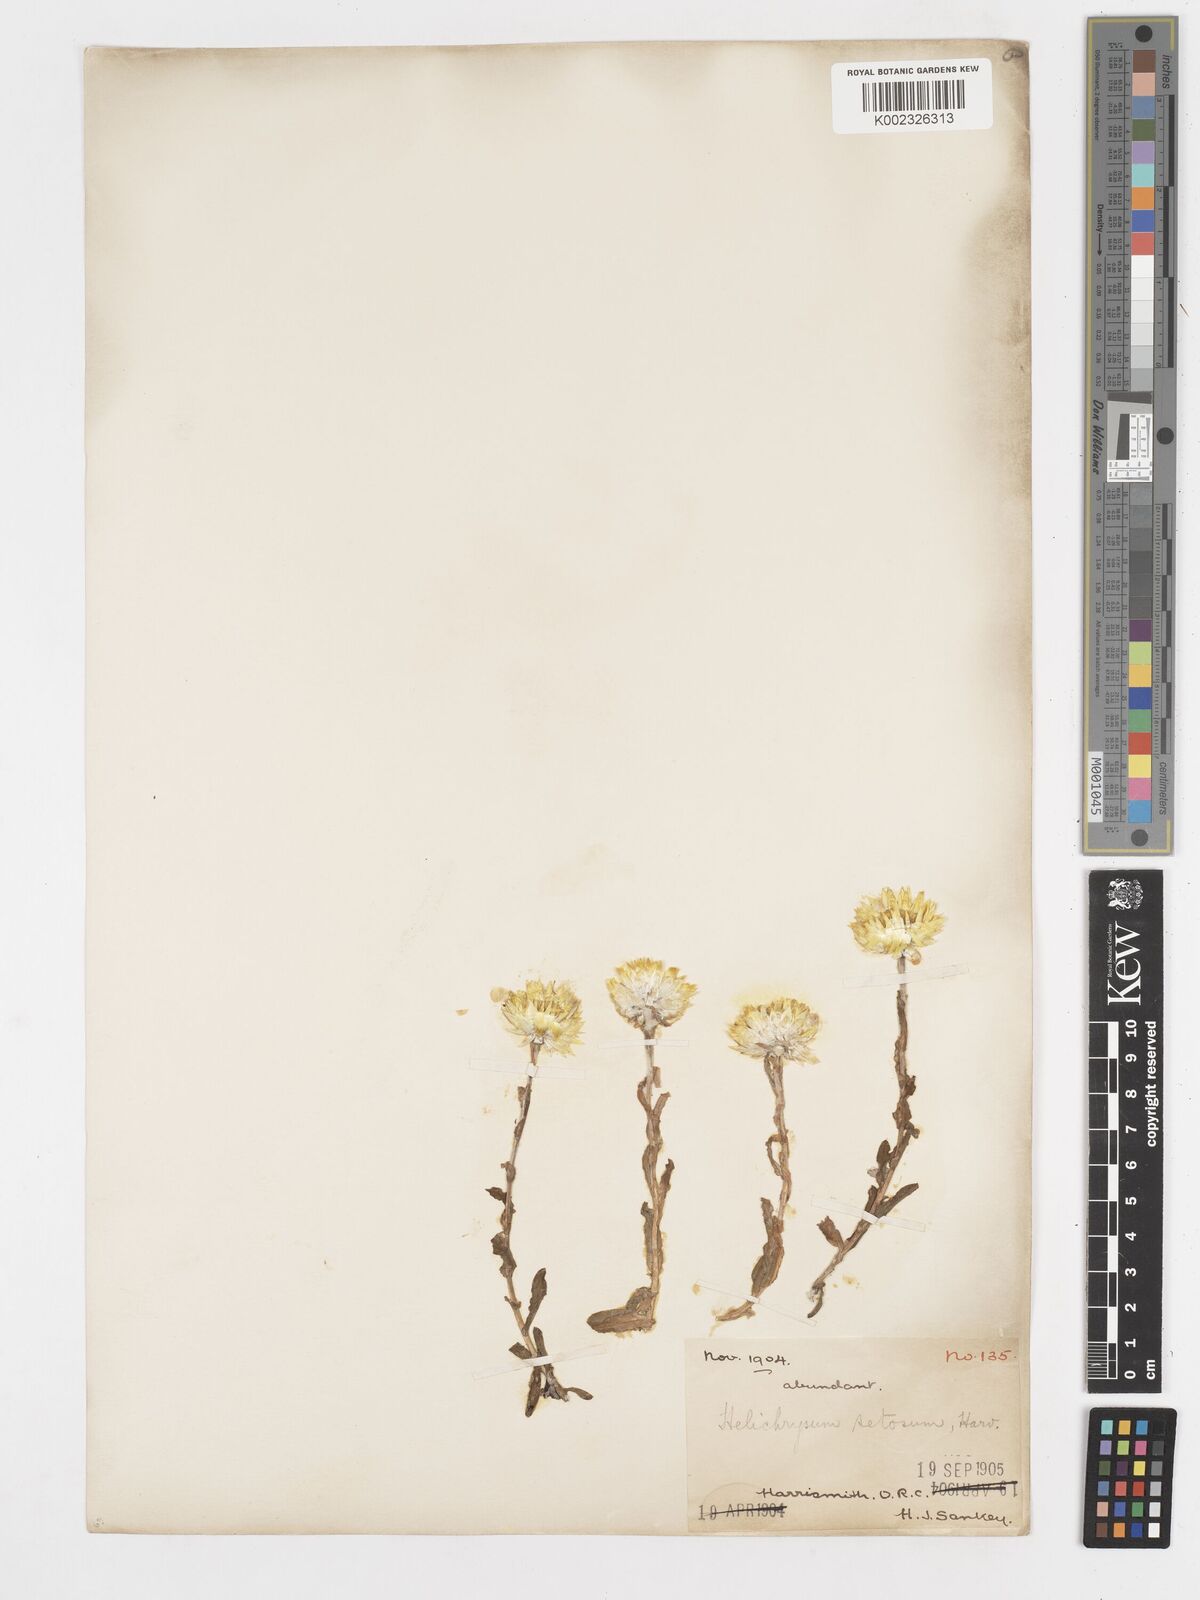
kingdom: Plantae
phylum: Tracheophyta
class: Magnoliopsida
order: Asterales
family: Asteraceae
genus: Helichrysum
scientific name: Helichrysum aureum
